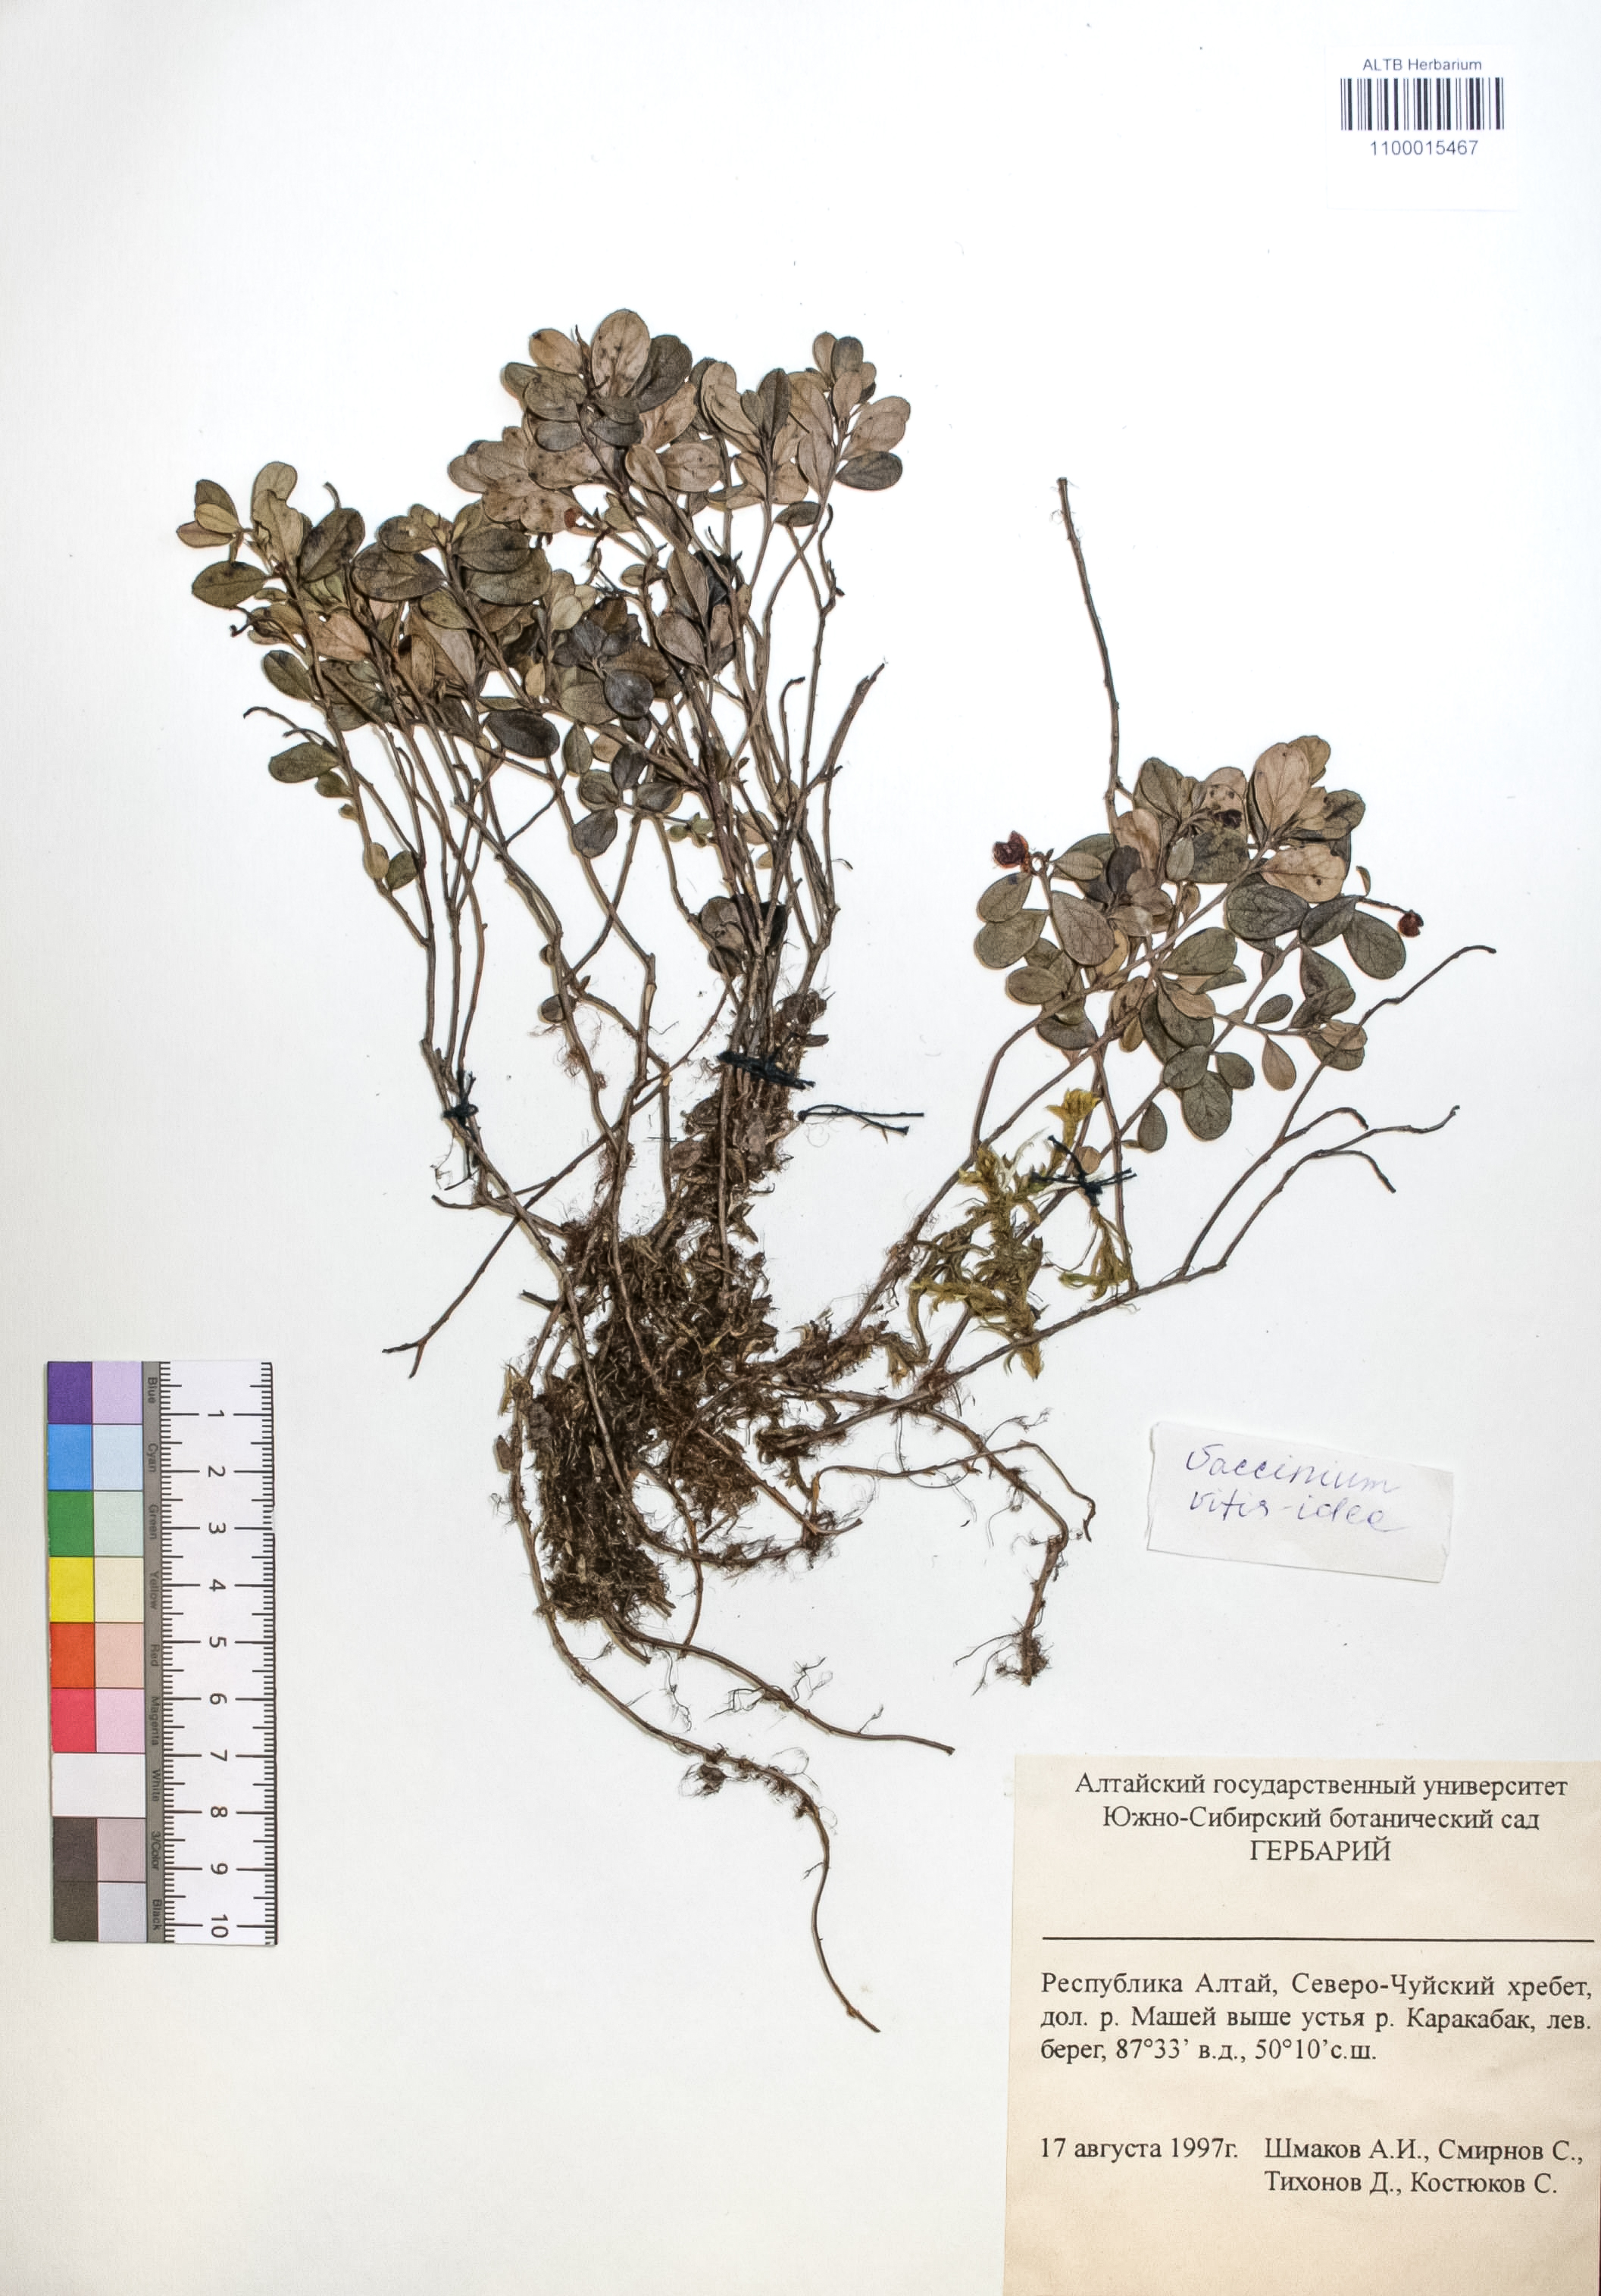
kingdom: Plantae
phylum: Tracheophyta
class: Magnoliopsida
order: Ericales
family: Ericaceae
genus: Vaccinium
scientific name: Vaccinium vitis-idaea
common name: Cowberry
